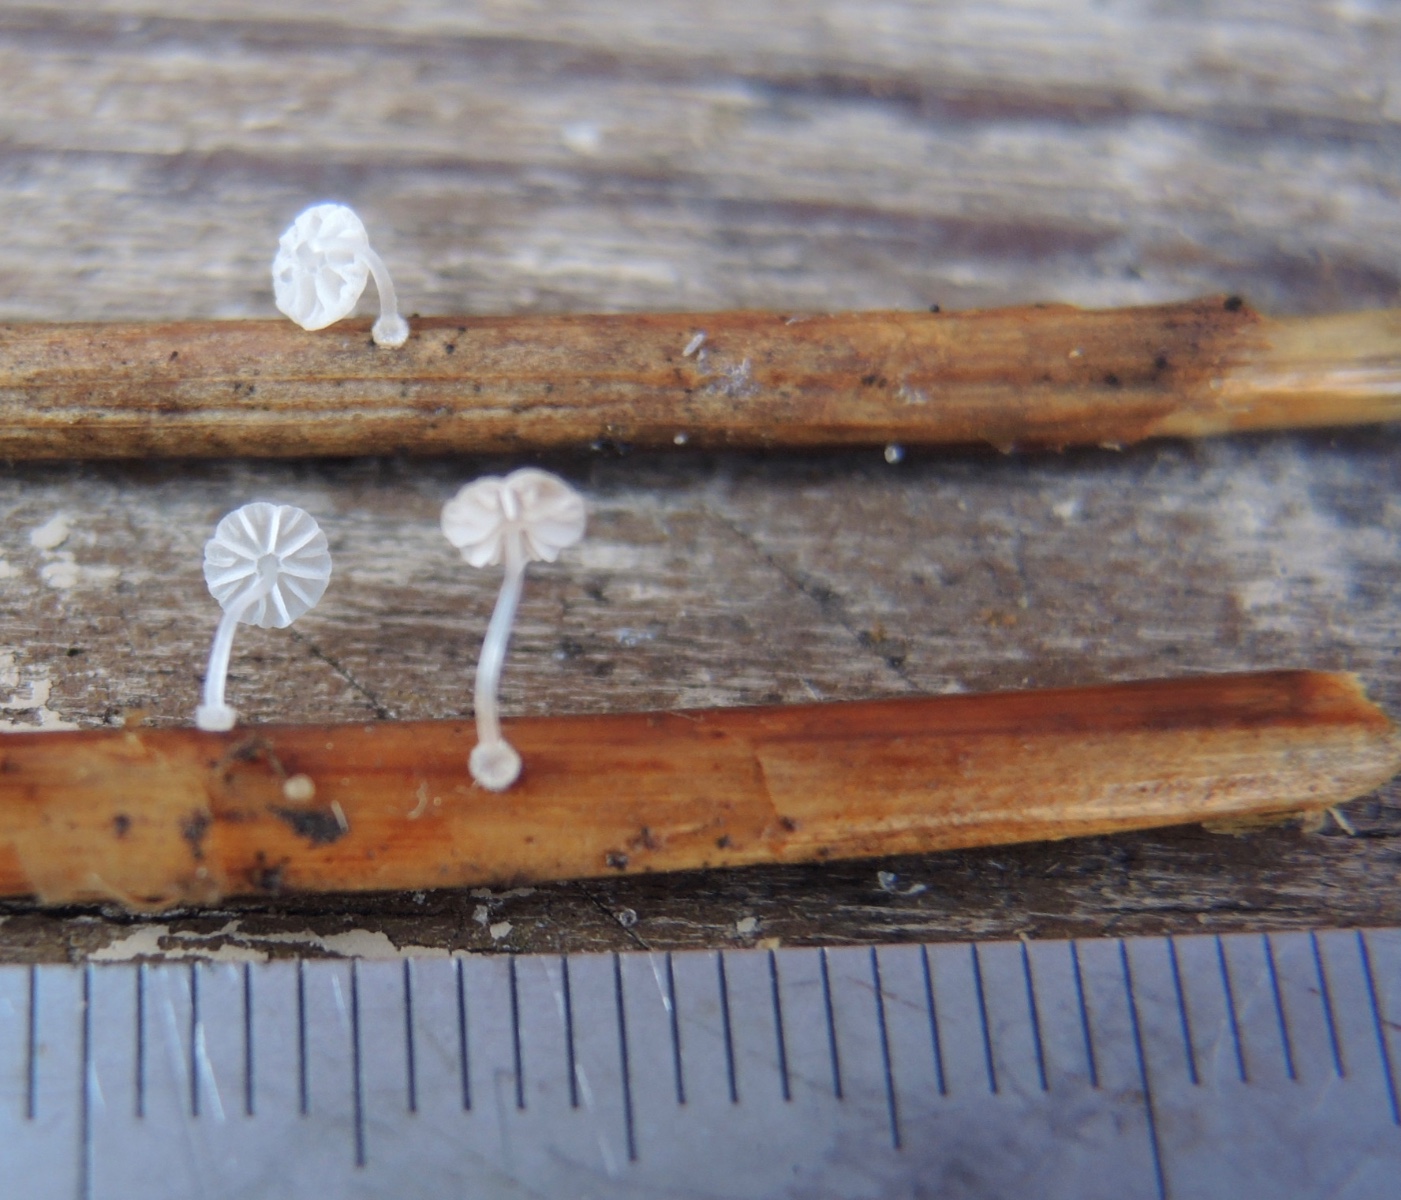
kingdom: Fungi
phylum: Basidiomycota
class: Agaricomycetes
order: Agaricales
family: Mycenaceae
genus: Mycena
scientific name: Mycena bulbosa
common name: siv-huesvamp
